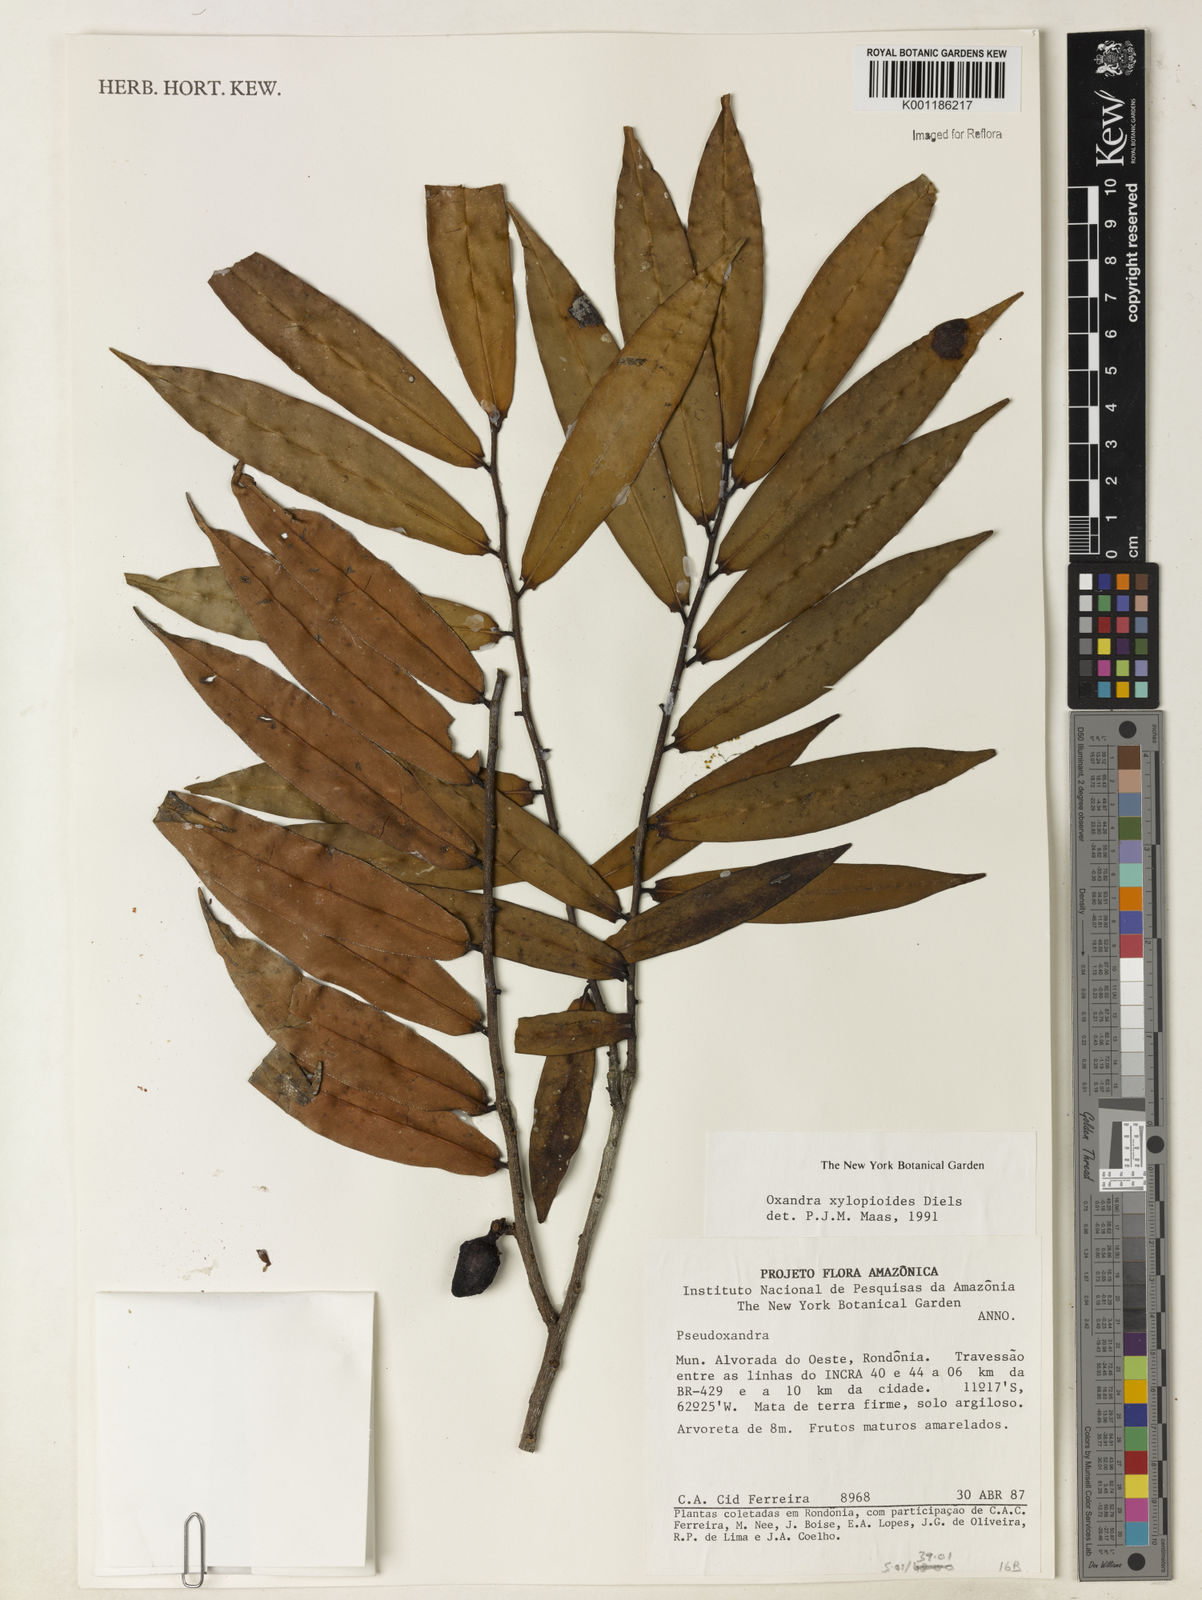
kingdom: Plantae
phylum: Tracheophyta
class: Magnoliopsida
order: Magnoliales
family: Annonaceae
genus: Oxandra
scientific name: Oxandra xylopioides
